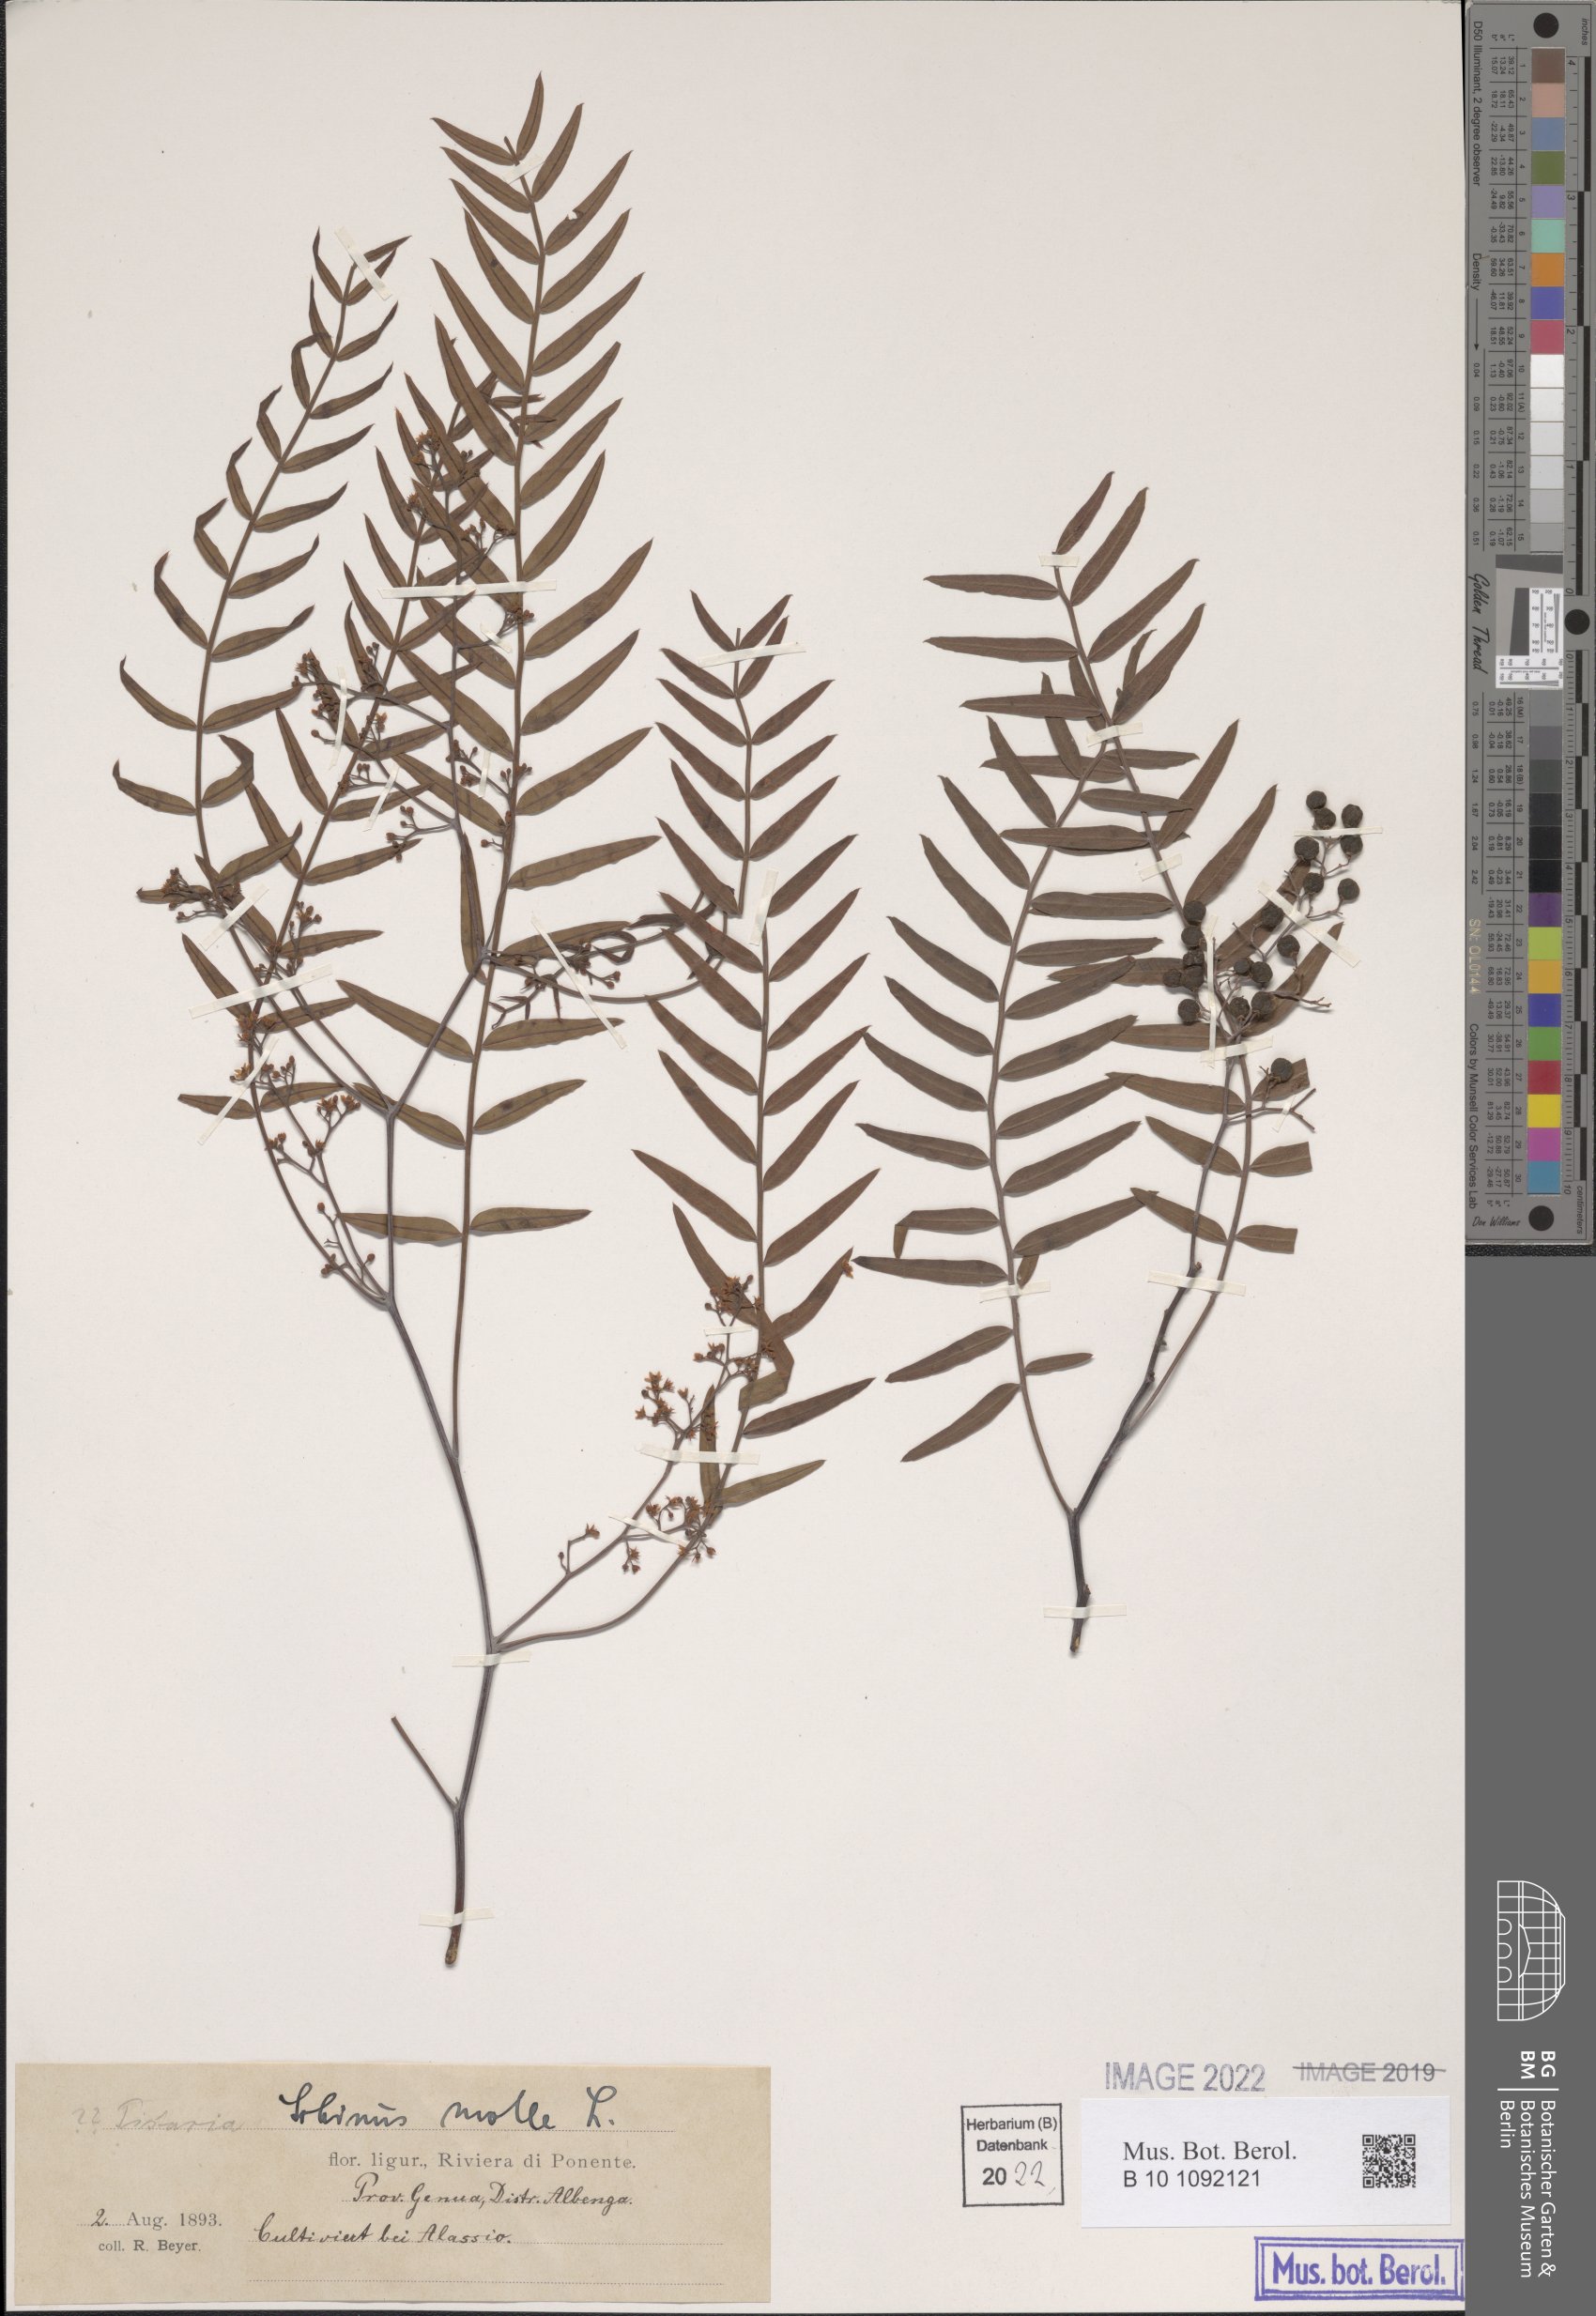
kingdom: Plantae
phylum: Tracheophyta
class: Magnoliopsida
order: Sapindales
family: Anacardiaceae
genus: Schinus
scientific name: Schinus molle
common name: Peruvian peppertree
